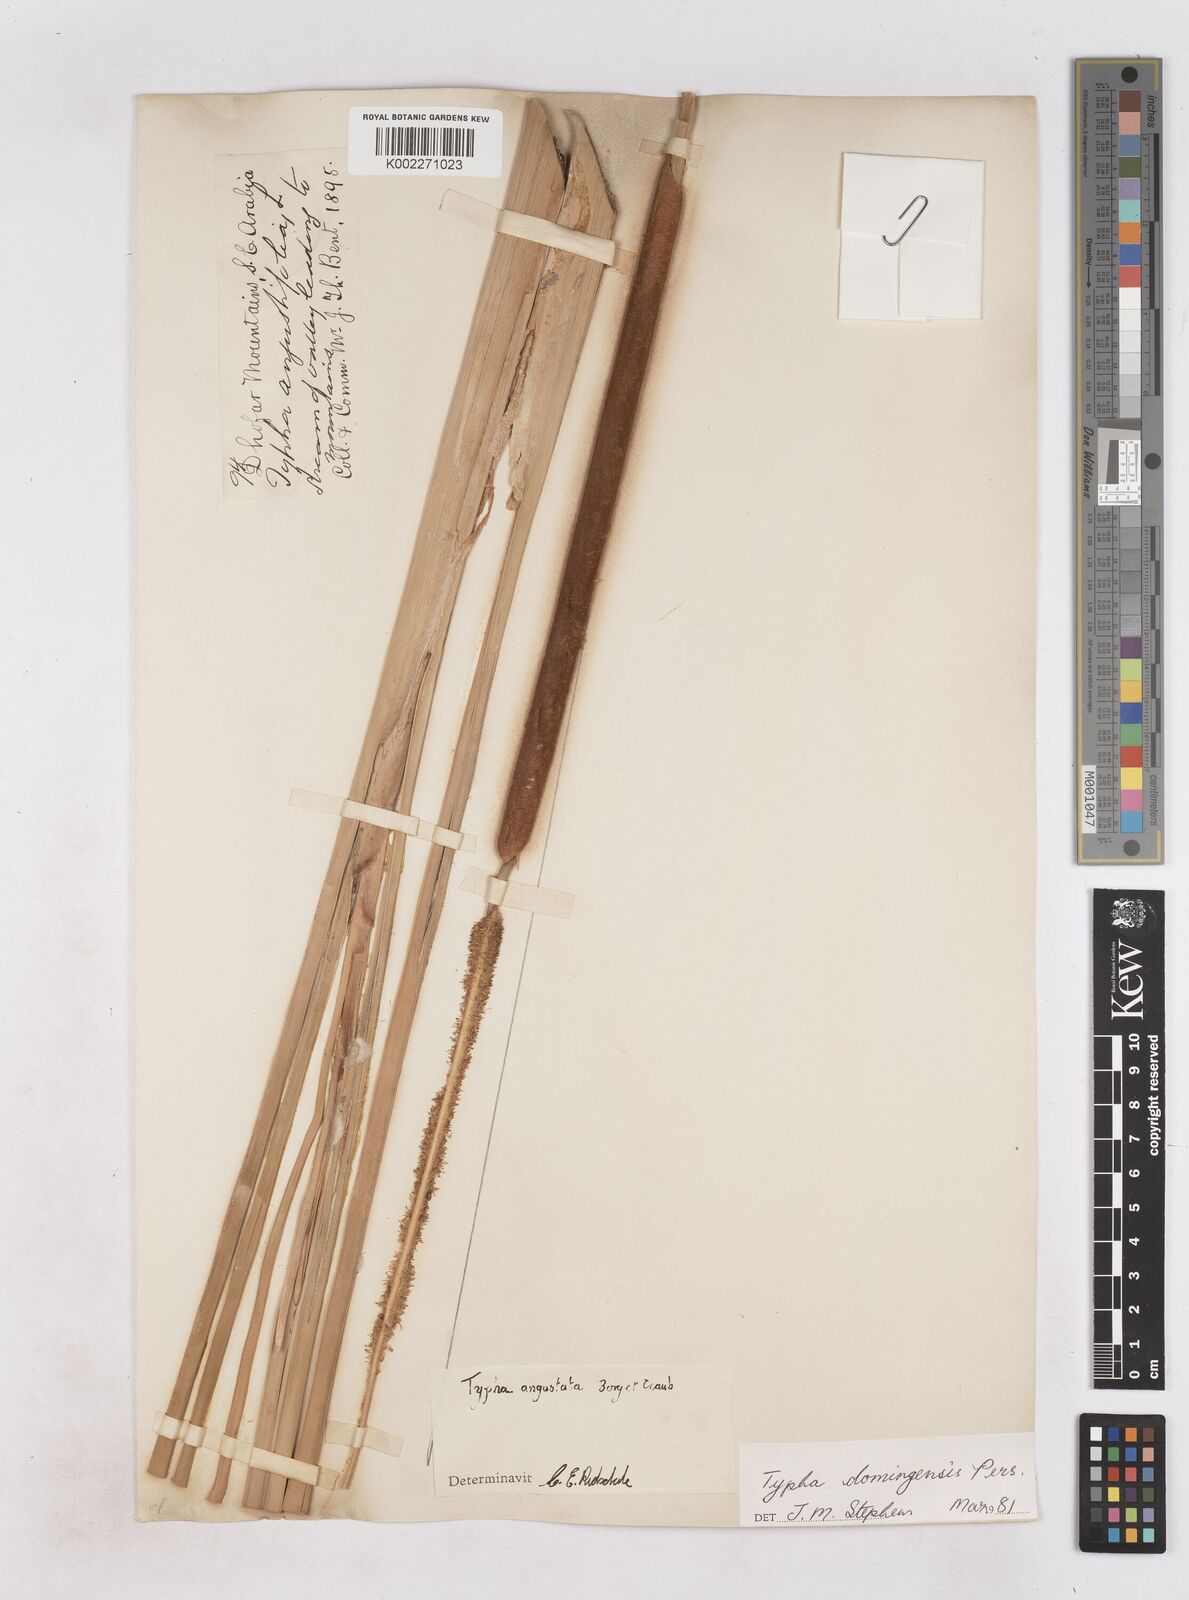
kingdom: Plantae
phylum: Tracheophyta
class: Liliopsida
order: Poales
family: Typhaceae
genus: Typha
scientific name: Typha domingensis
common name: Southern cattail
